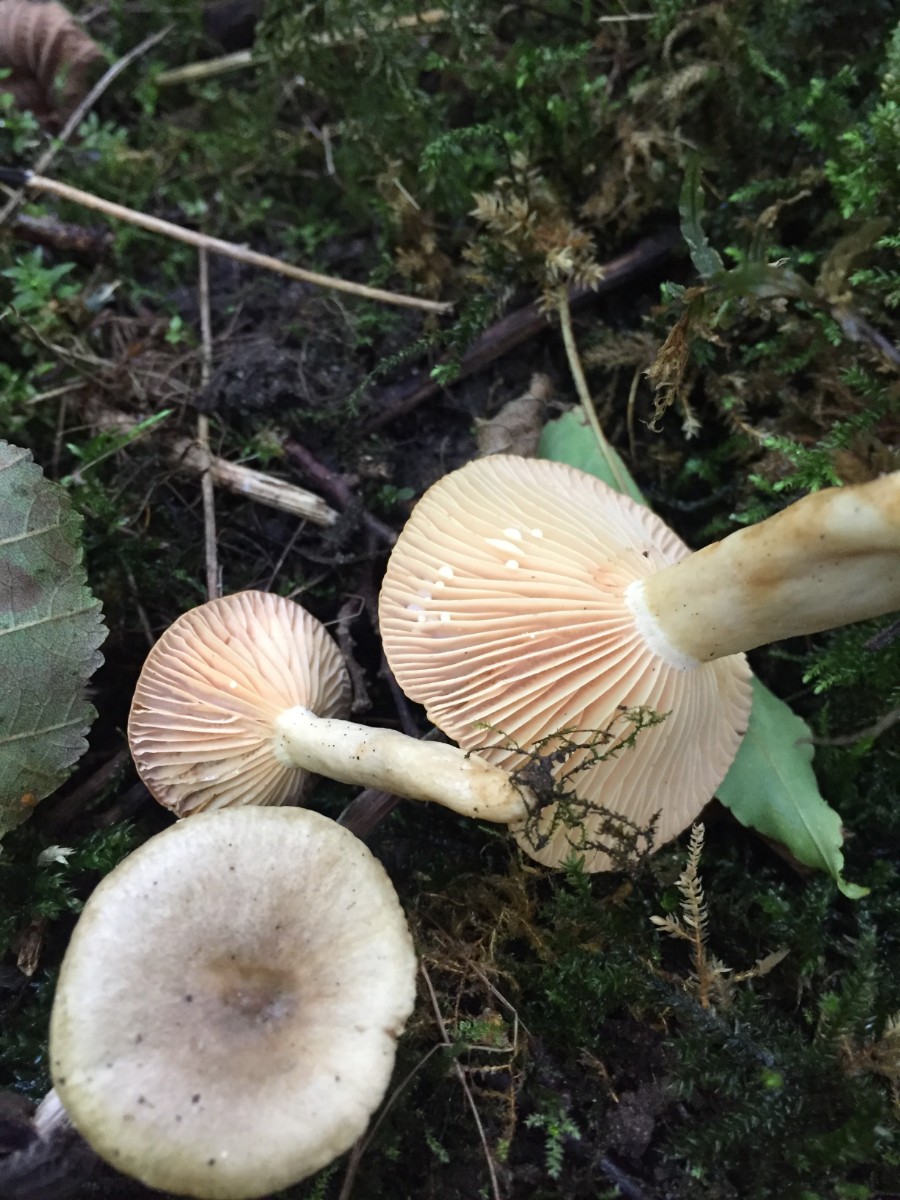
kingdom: Fungi
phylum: Basidiomycota
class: Agaricomycetes
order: Russulales
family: Russulaceae
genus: Lactarius
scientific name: Lactarius pyrogalus
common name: hassel-mælkehat
